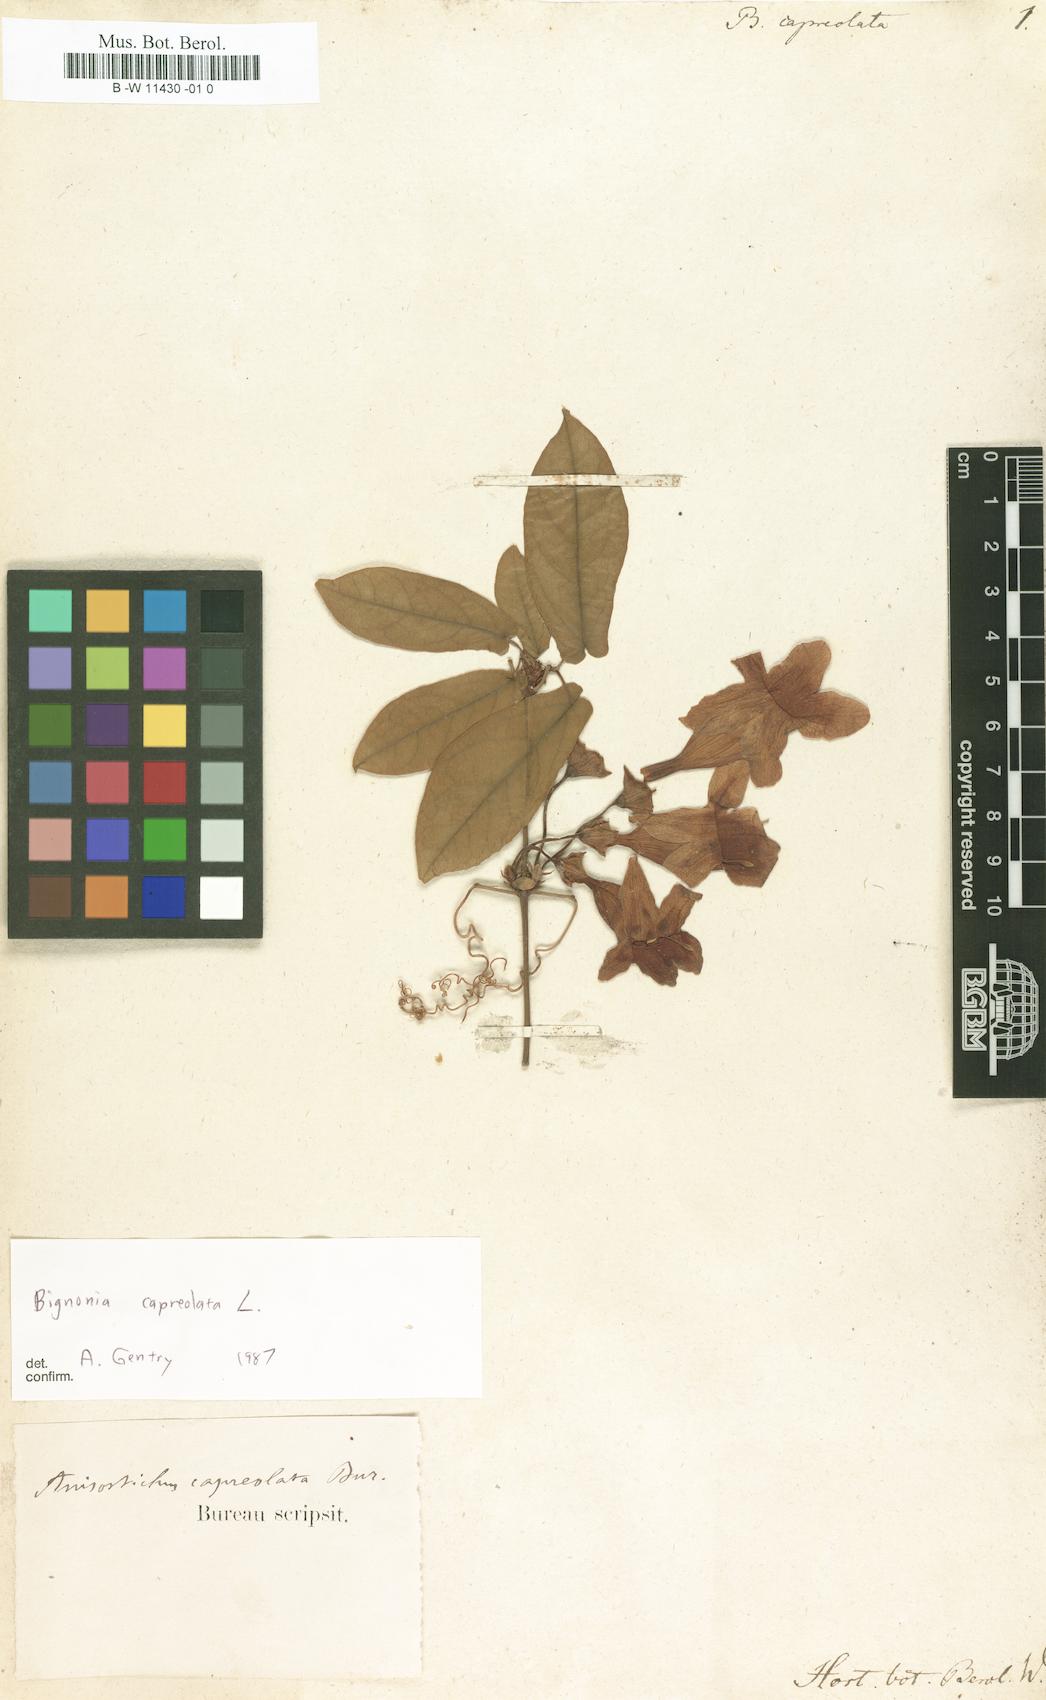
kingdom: Plantae
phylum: Tracheophyta
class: Magnoliopsida
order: Lamiales
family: Bignoniaceae
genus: Bignonia
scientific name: Bignonia capreolata
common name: Crossvine
